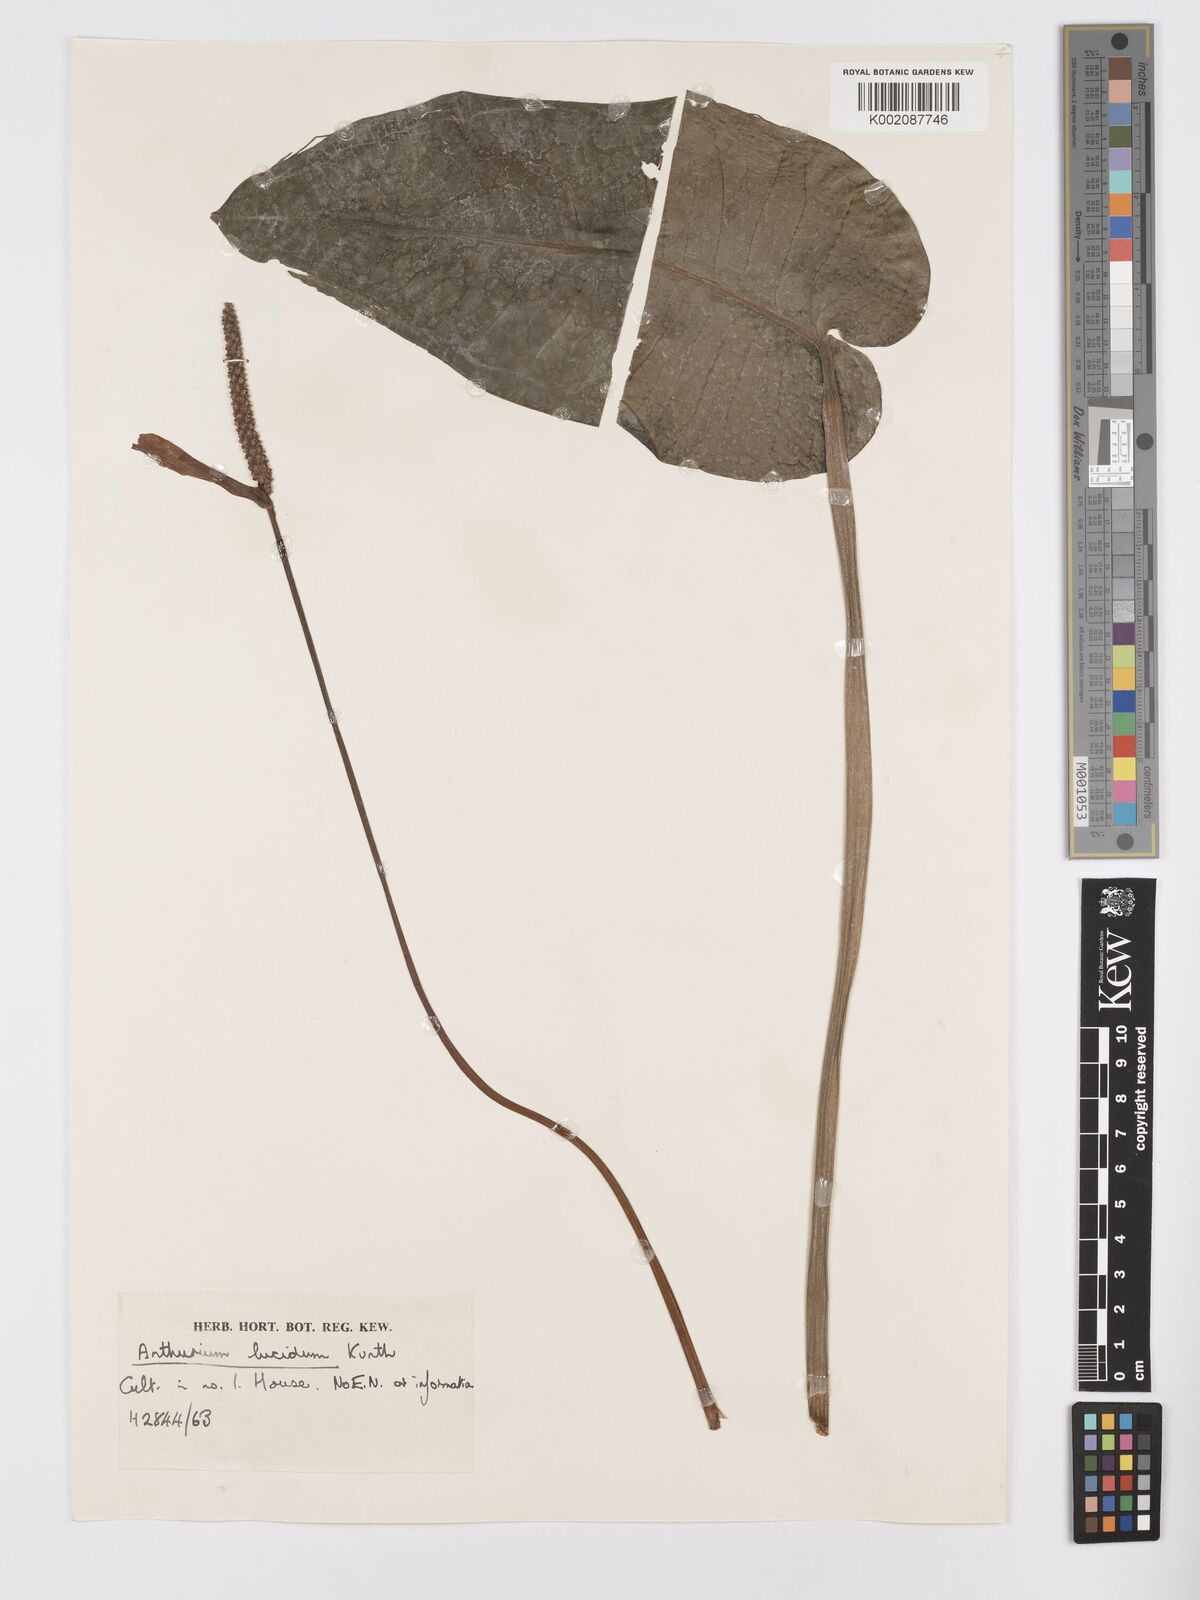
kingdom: Plantae
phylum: Tracheophyta
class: Liliopsida
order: Alismatales
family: Araceae
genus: Anthurium
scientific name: Anthurium lucidum
